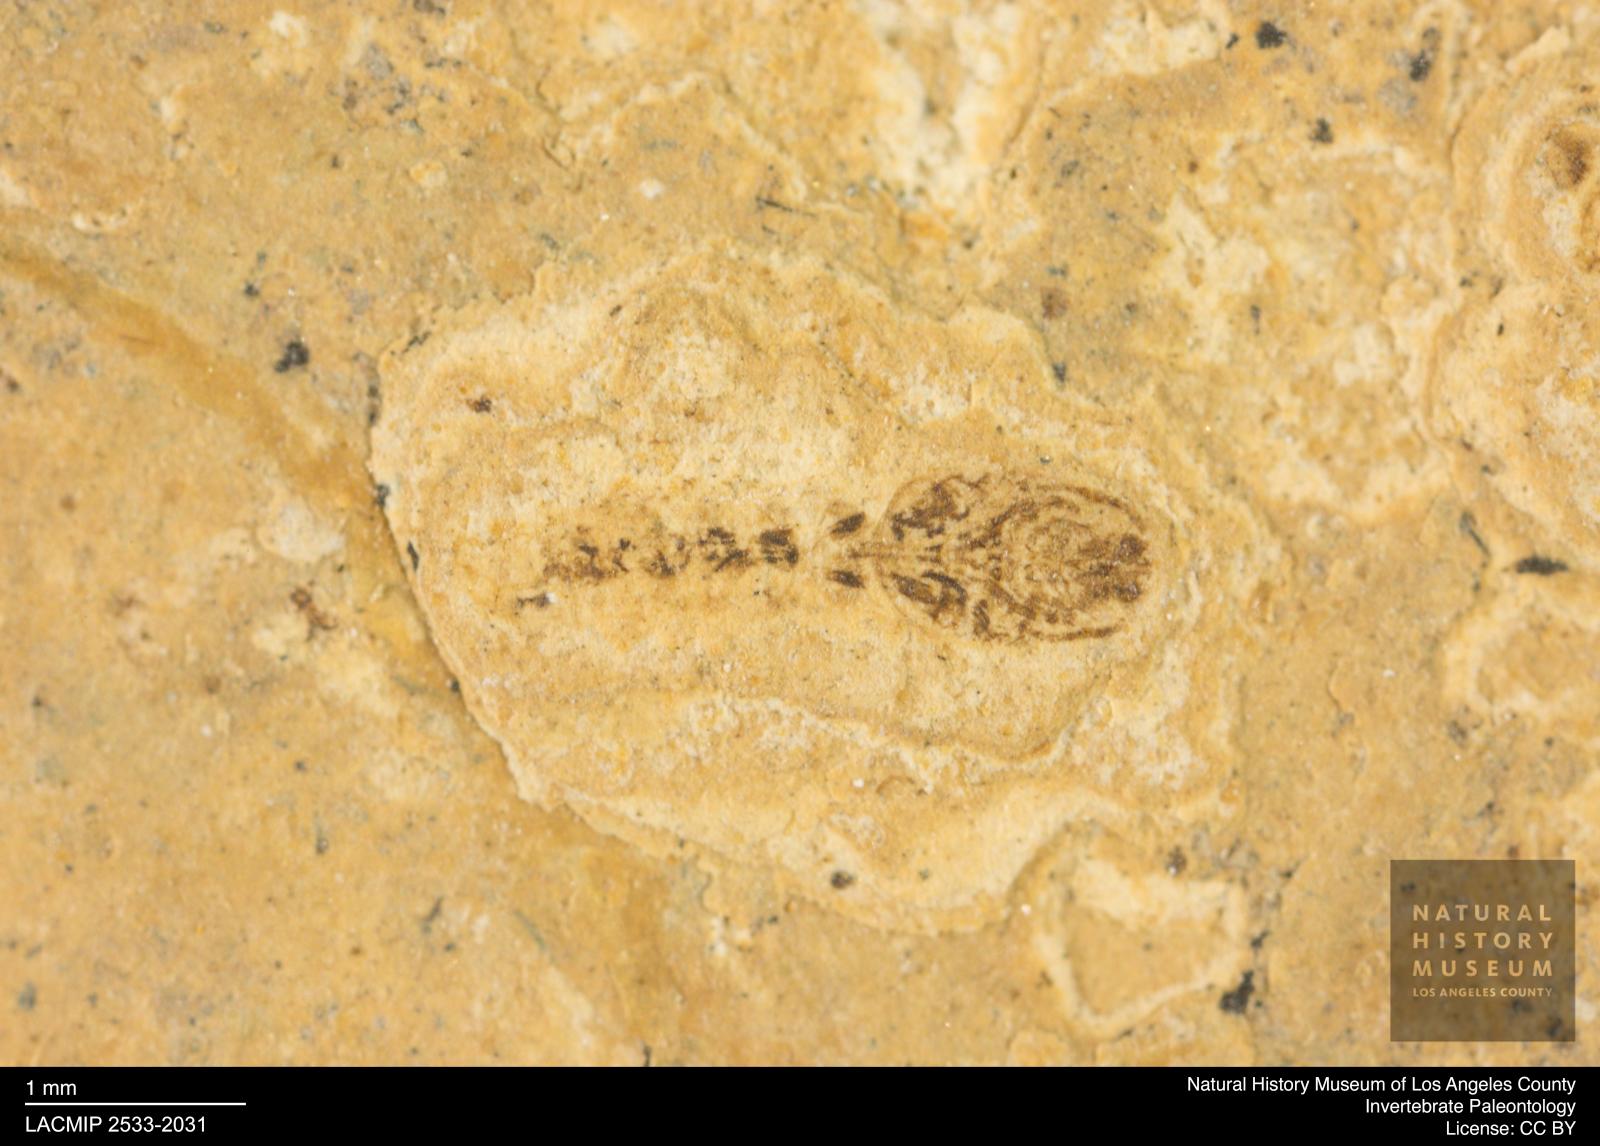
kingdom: Animalia
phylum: Arthropoda
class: Insecta
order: Diptera
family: Ceratopogonidae
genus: Ceratopogon
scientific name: Ceratopogon
